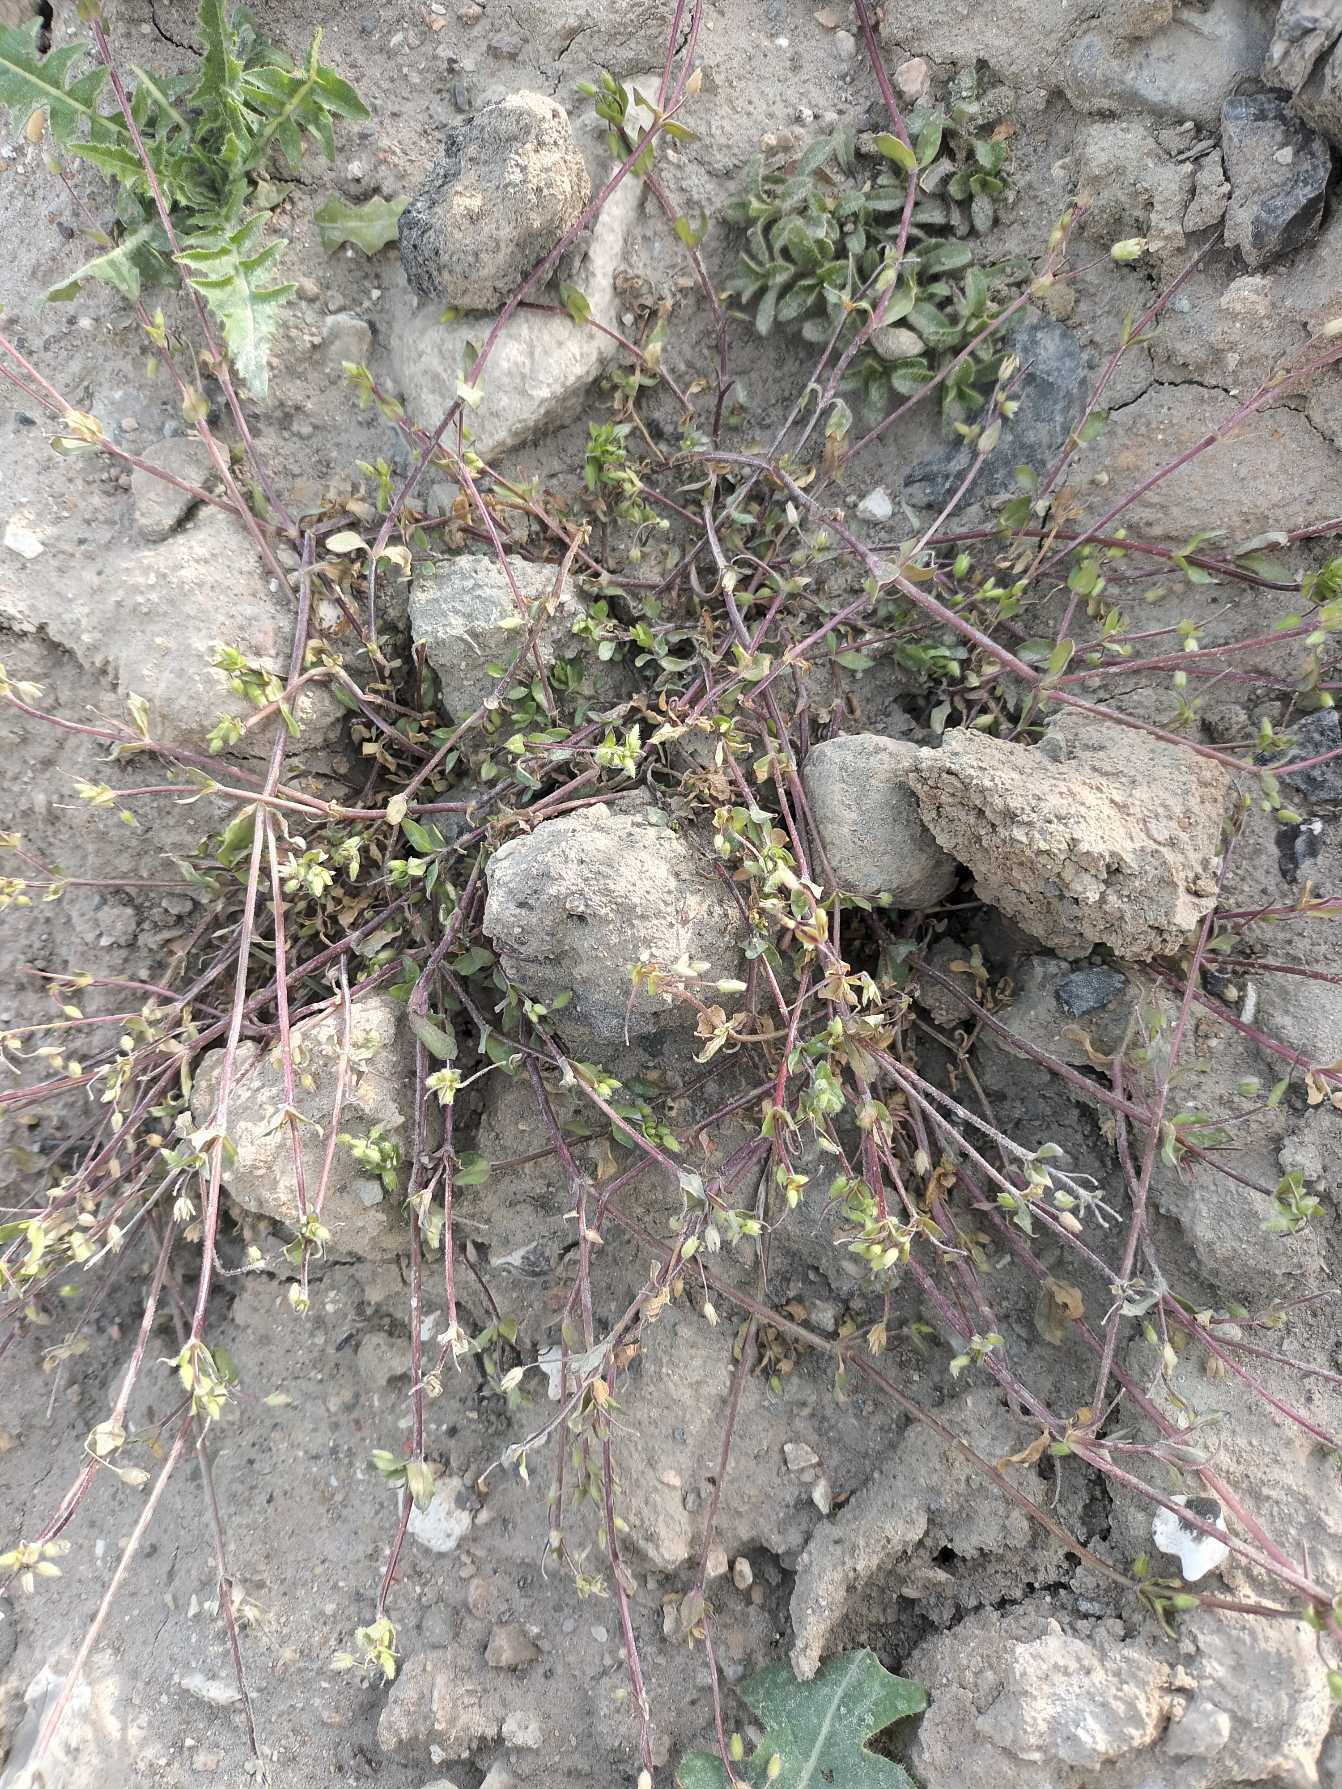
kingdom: Plantae
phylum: Tracheophyta
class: Magnoliopsida
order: Caryophyllales
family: Caryophyllaceae
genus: Stellaria
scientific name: Stellaria apetala
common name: Bleg fuglegræs
